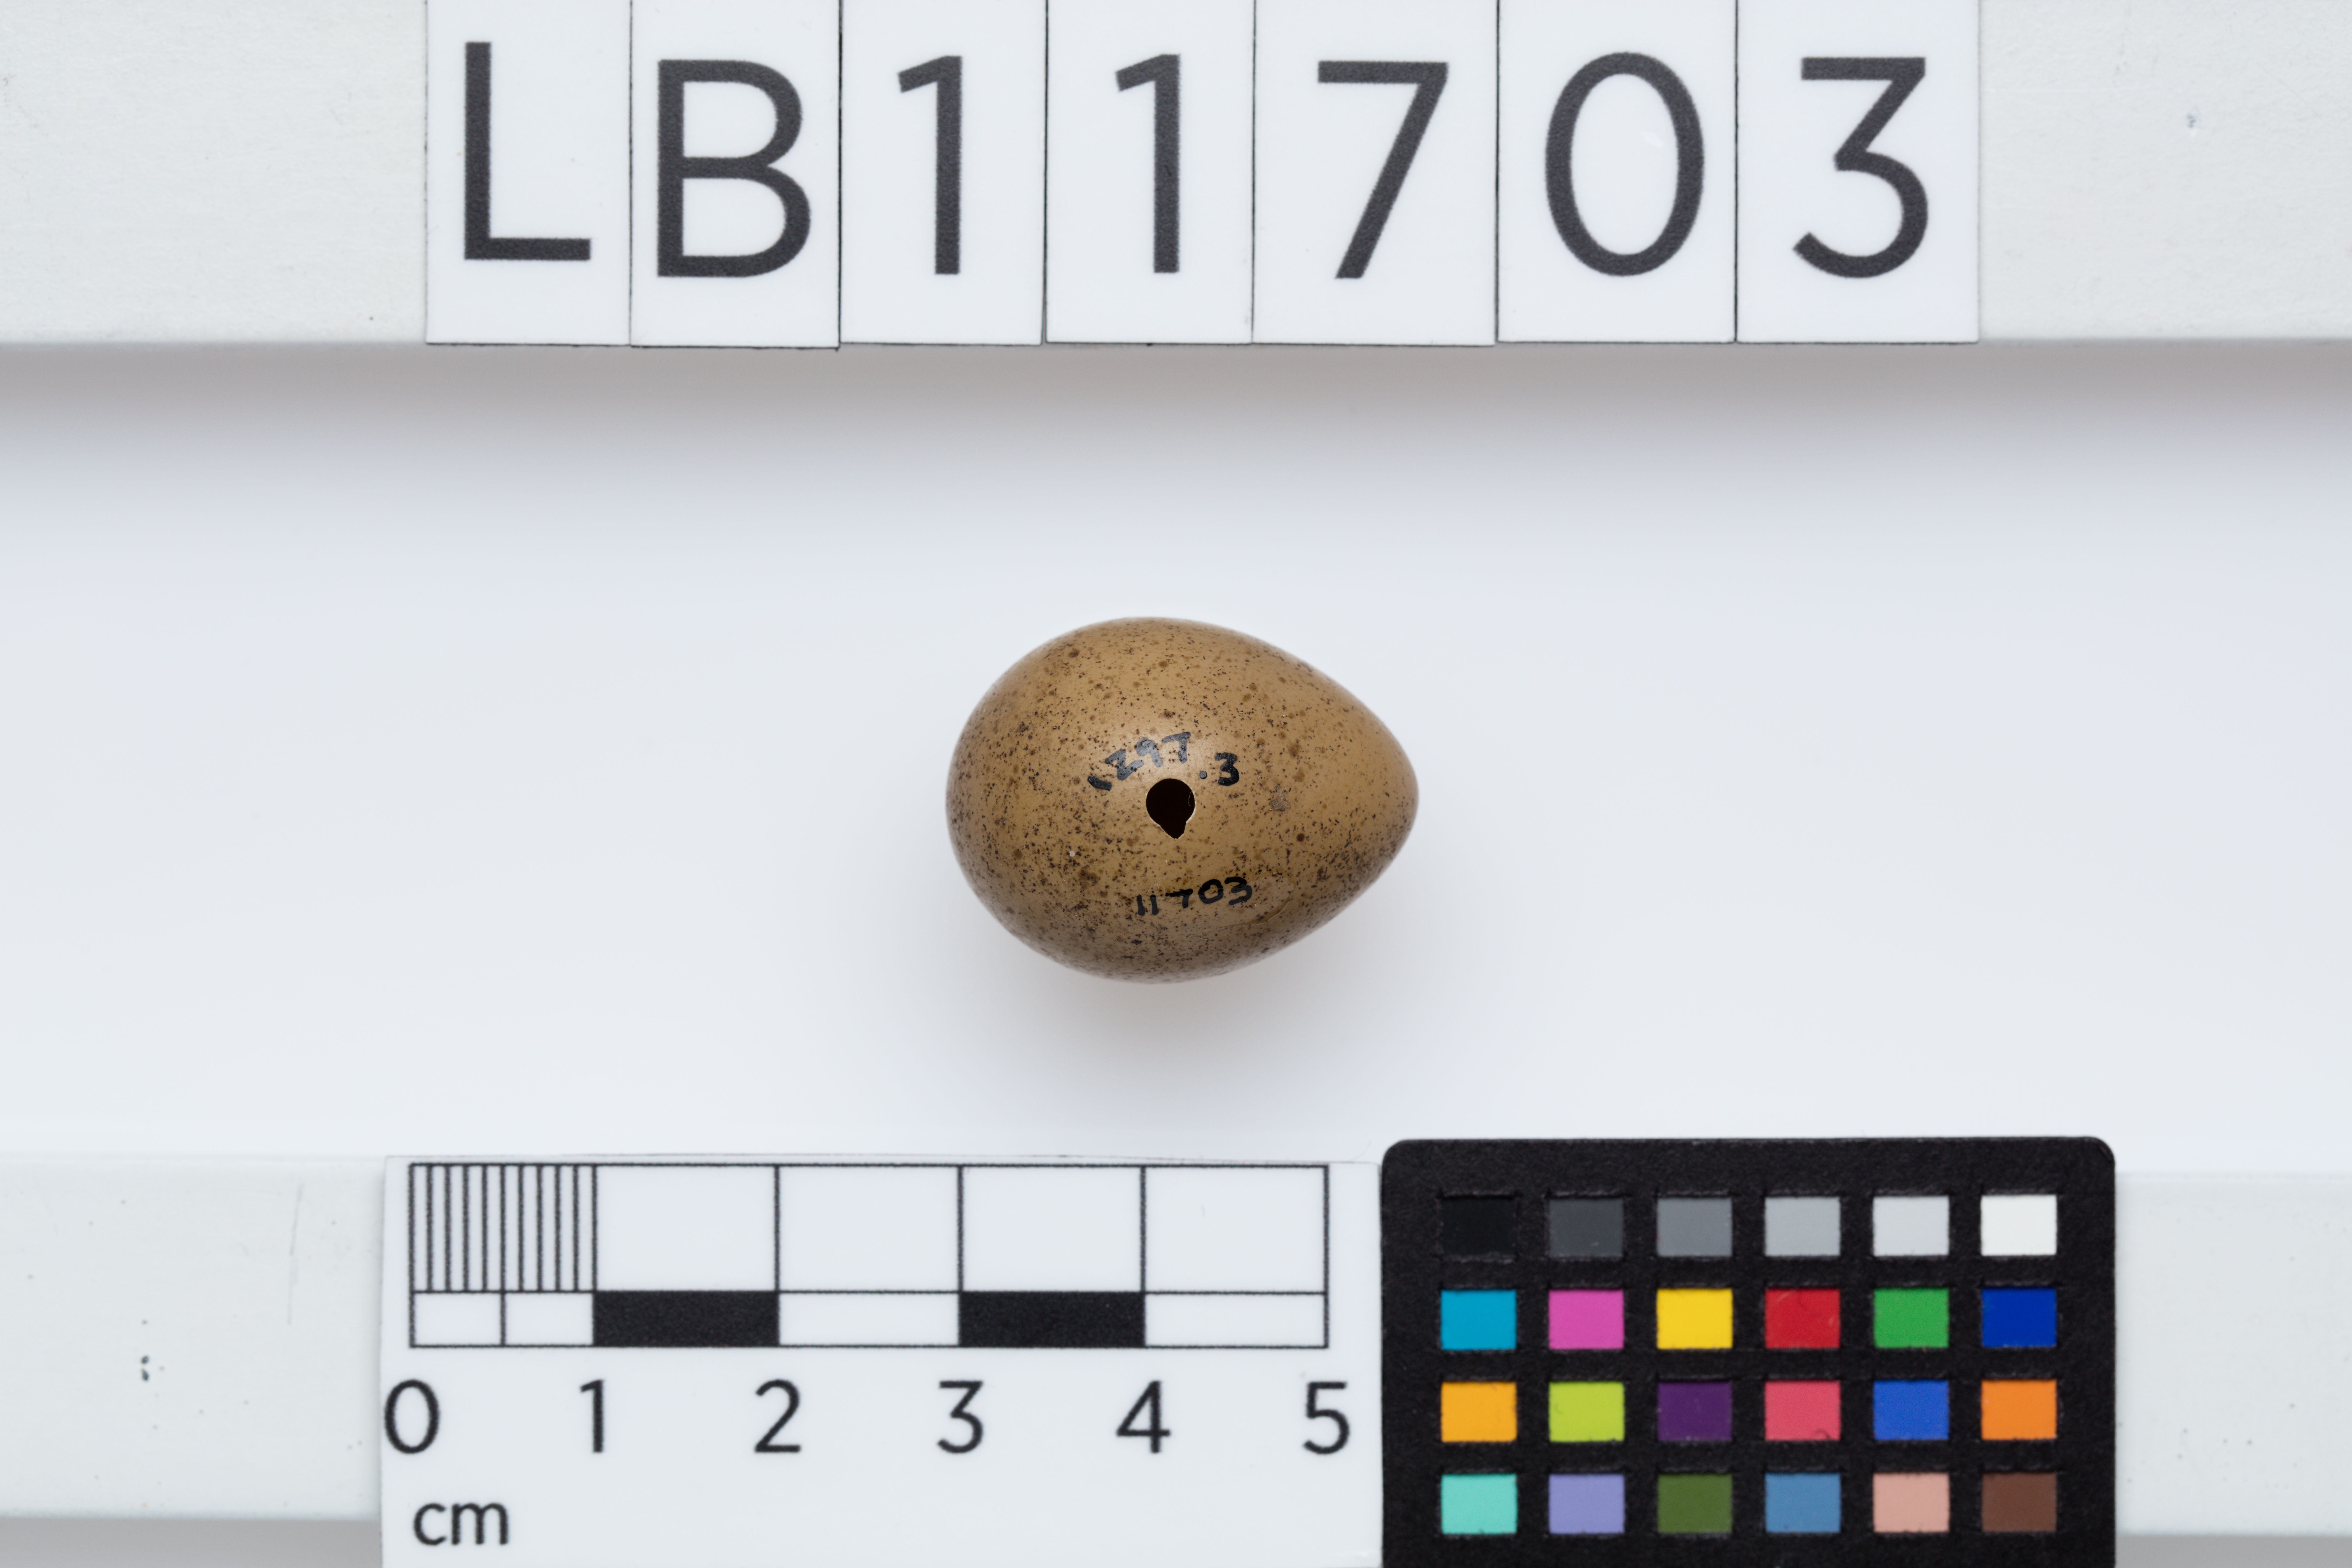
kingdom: Animalia
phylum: Chordata
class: Aves
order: Galliformes
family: Phasianidae
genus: Synoicus
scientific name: Synoicus chinensis
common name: Blue-breasted quail
